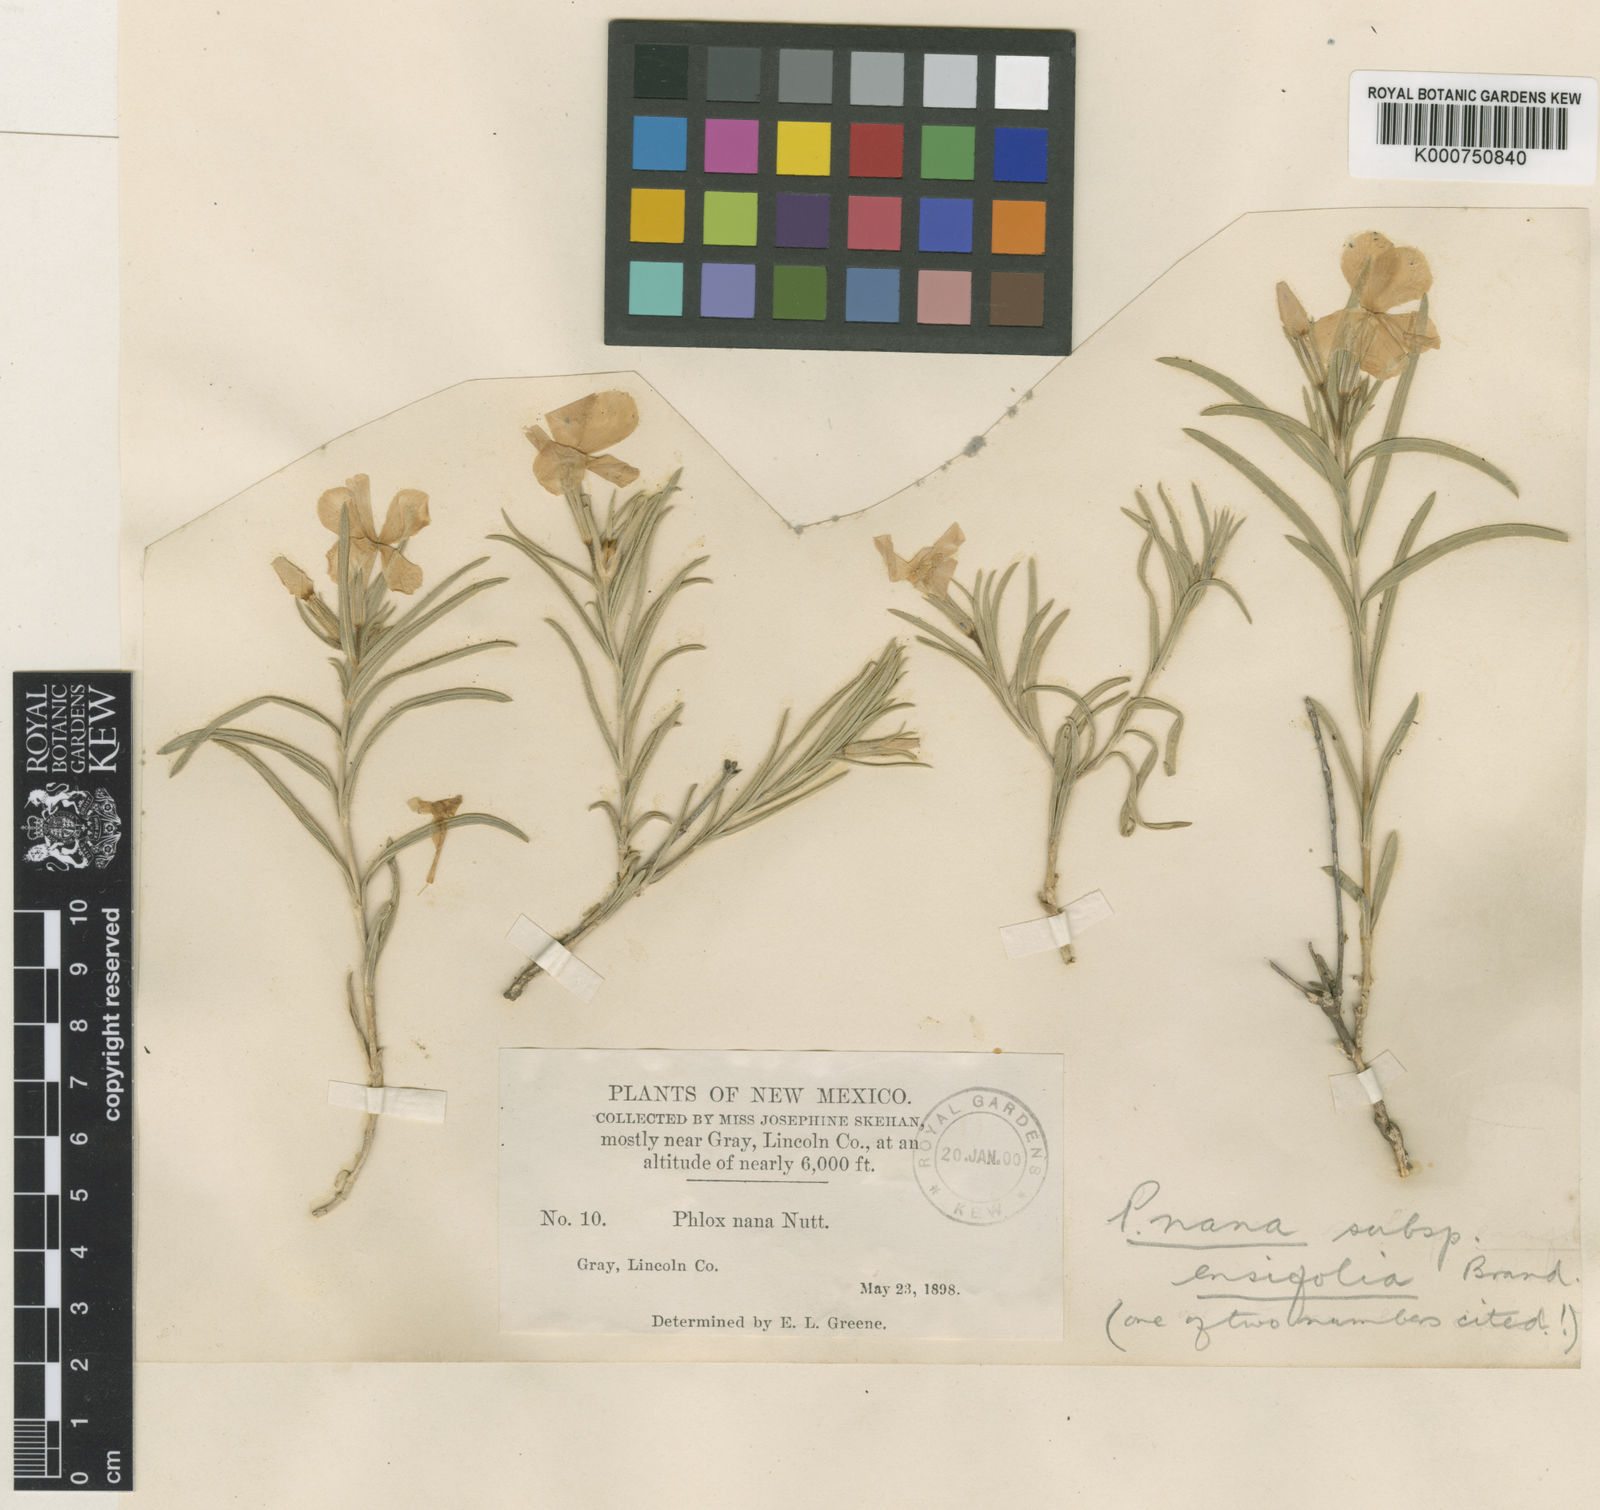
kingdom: Plantae
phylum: Tracheophyta
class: Magnoliopsida
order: Ericales
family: Polemoniaceae
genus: Phlox
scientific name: Phlox mesoleuca
